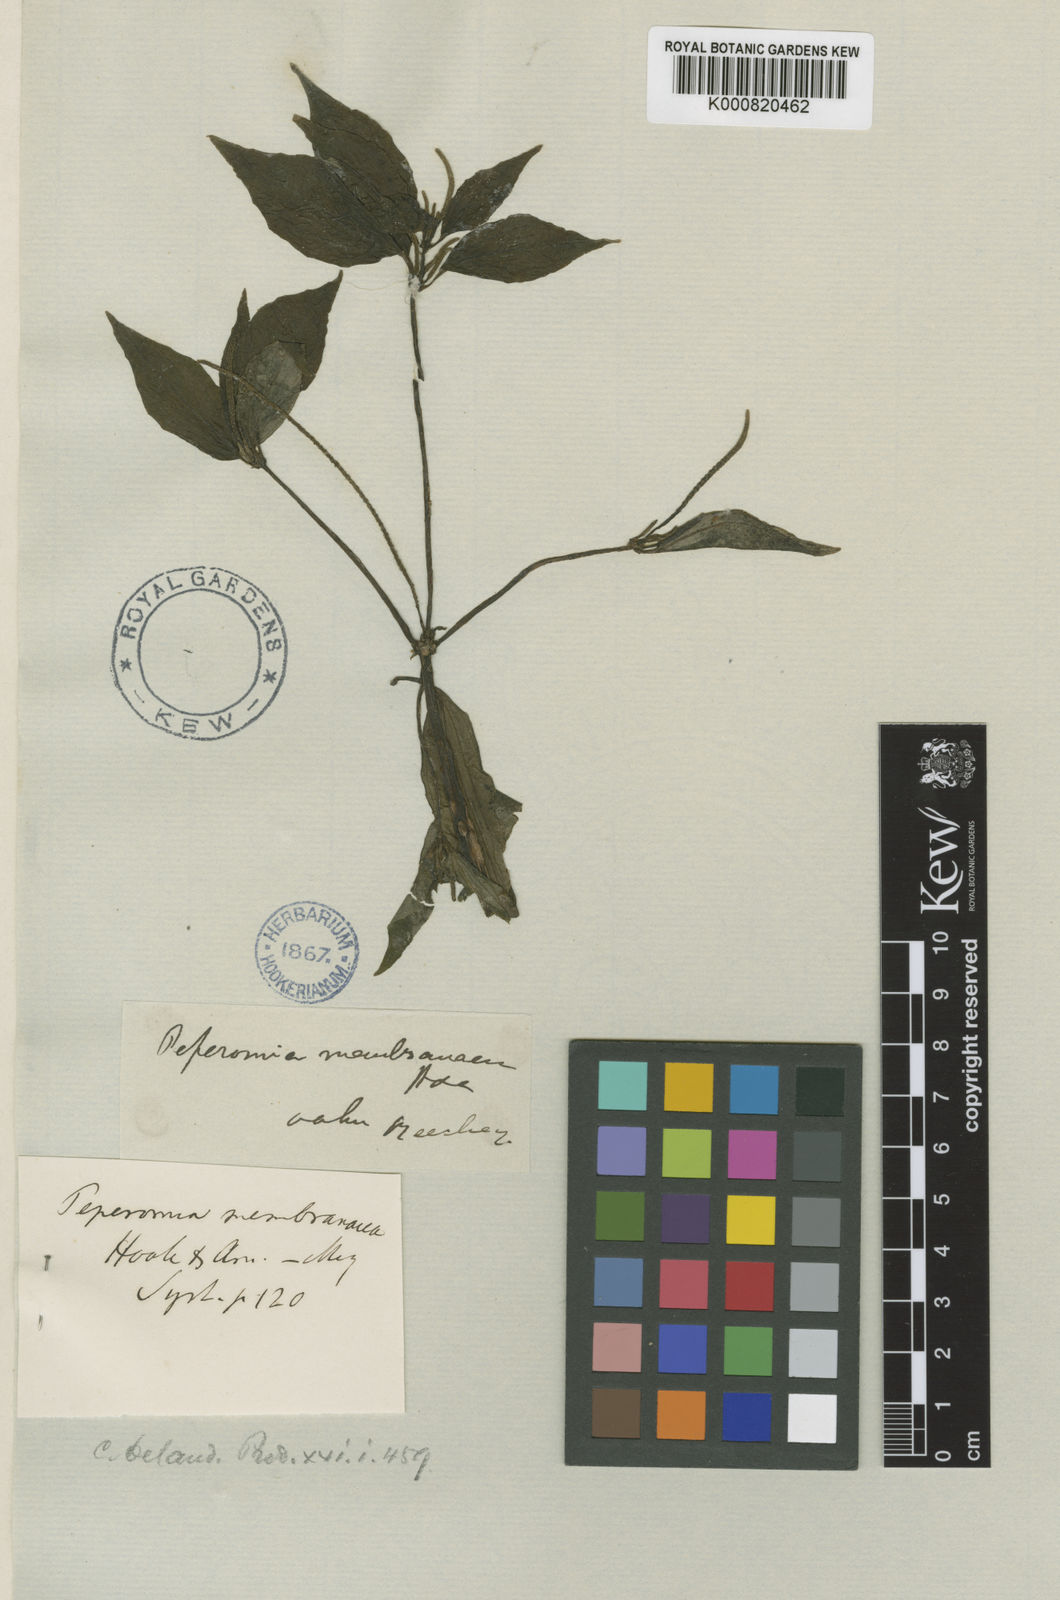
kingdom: Plantae
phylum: Tracheophyta
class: Magnoliopsida
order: Piperales
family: Piperaceae
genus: Peperomia
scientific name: Peperomia membranacea
